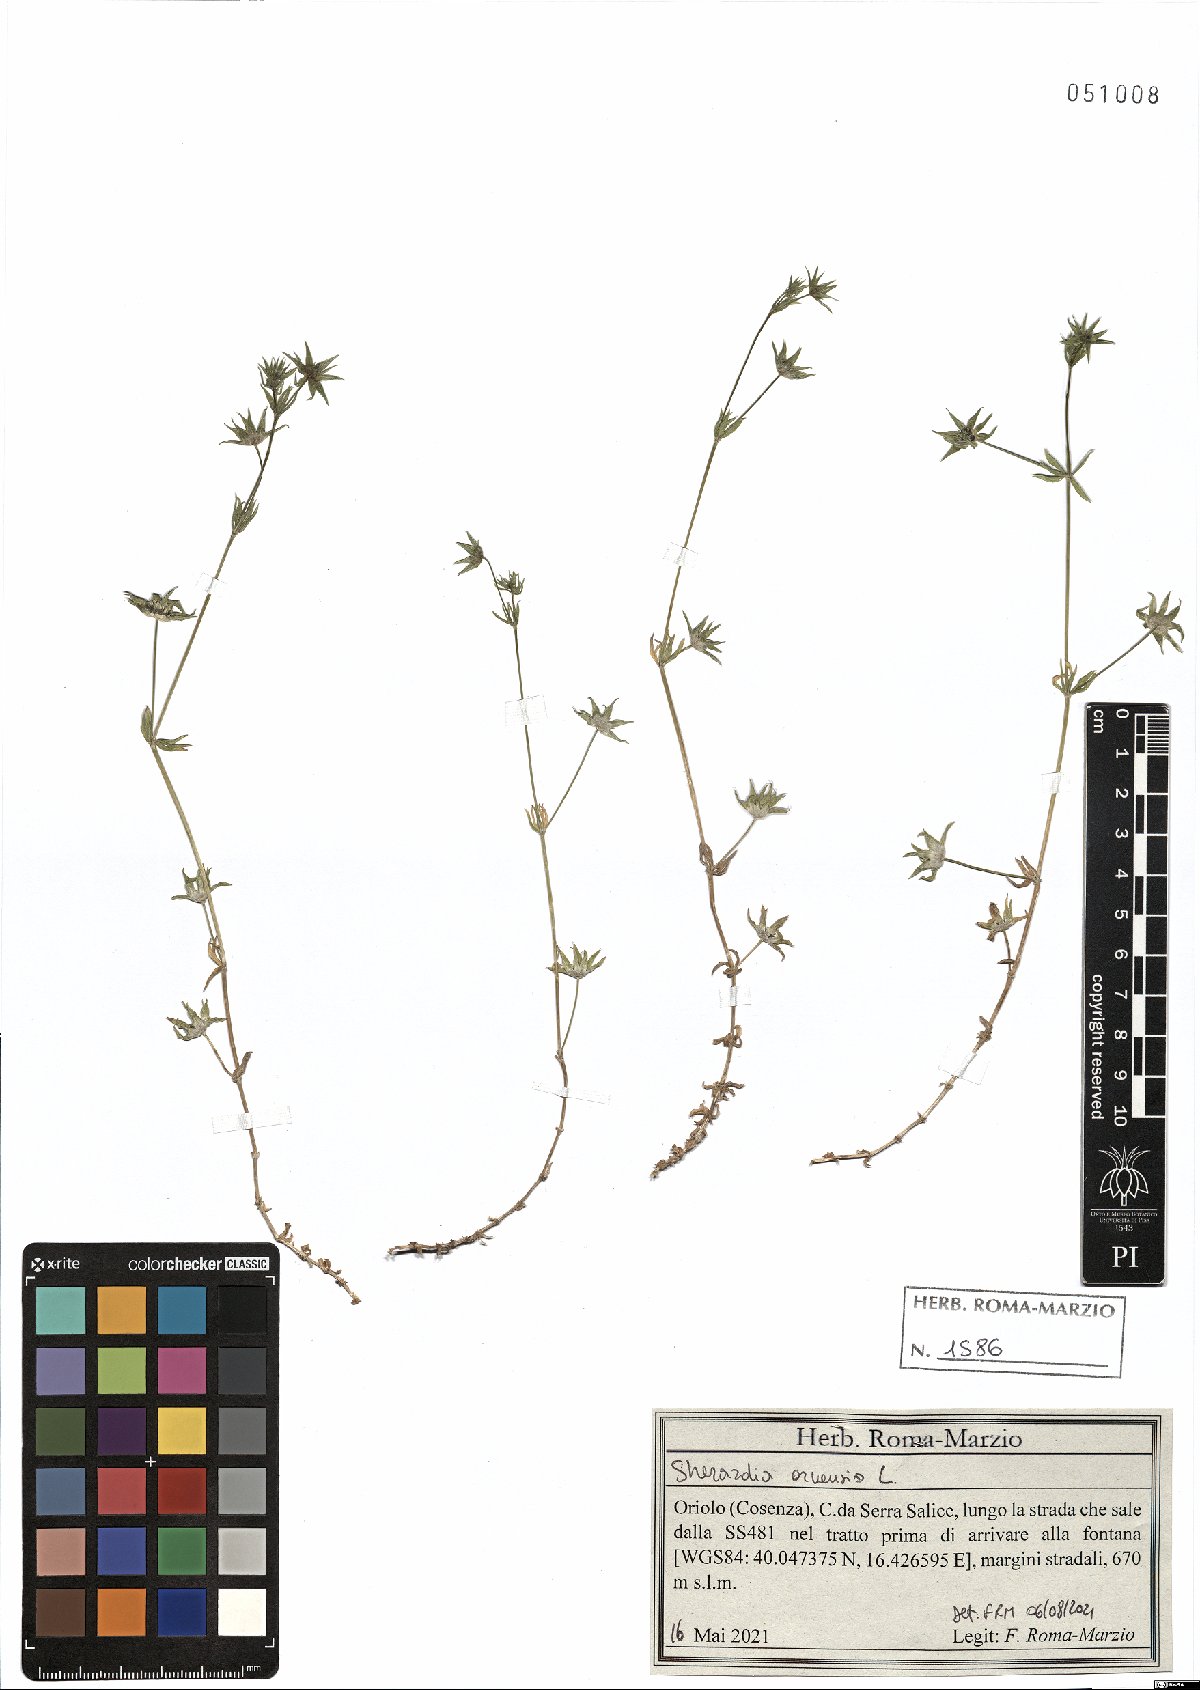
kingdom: Plantae
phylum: Tracheophyta
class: Magnoliopsida
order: Gentianales
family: Rubiaceae
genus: Sherardia
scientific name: Sherardia arvensis
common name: Field madder
